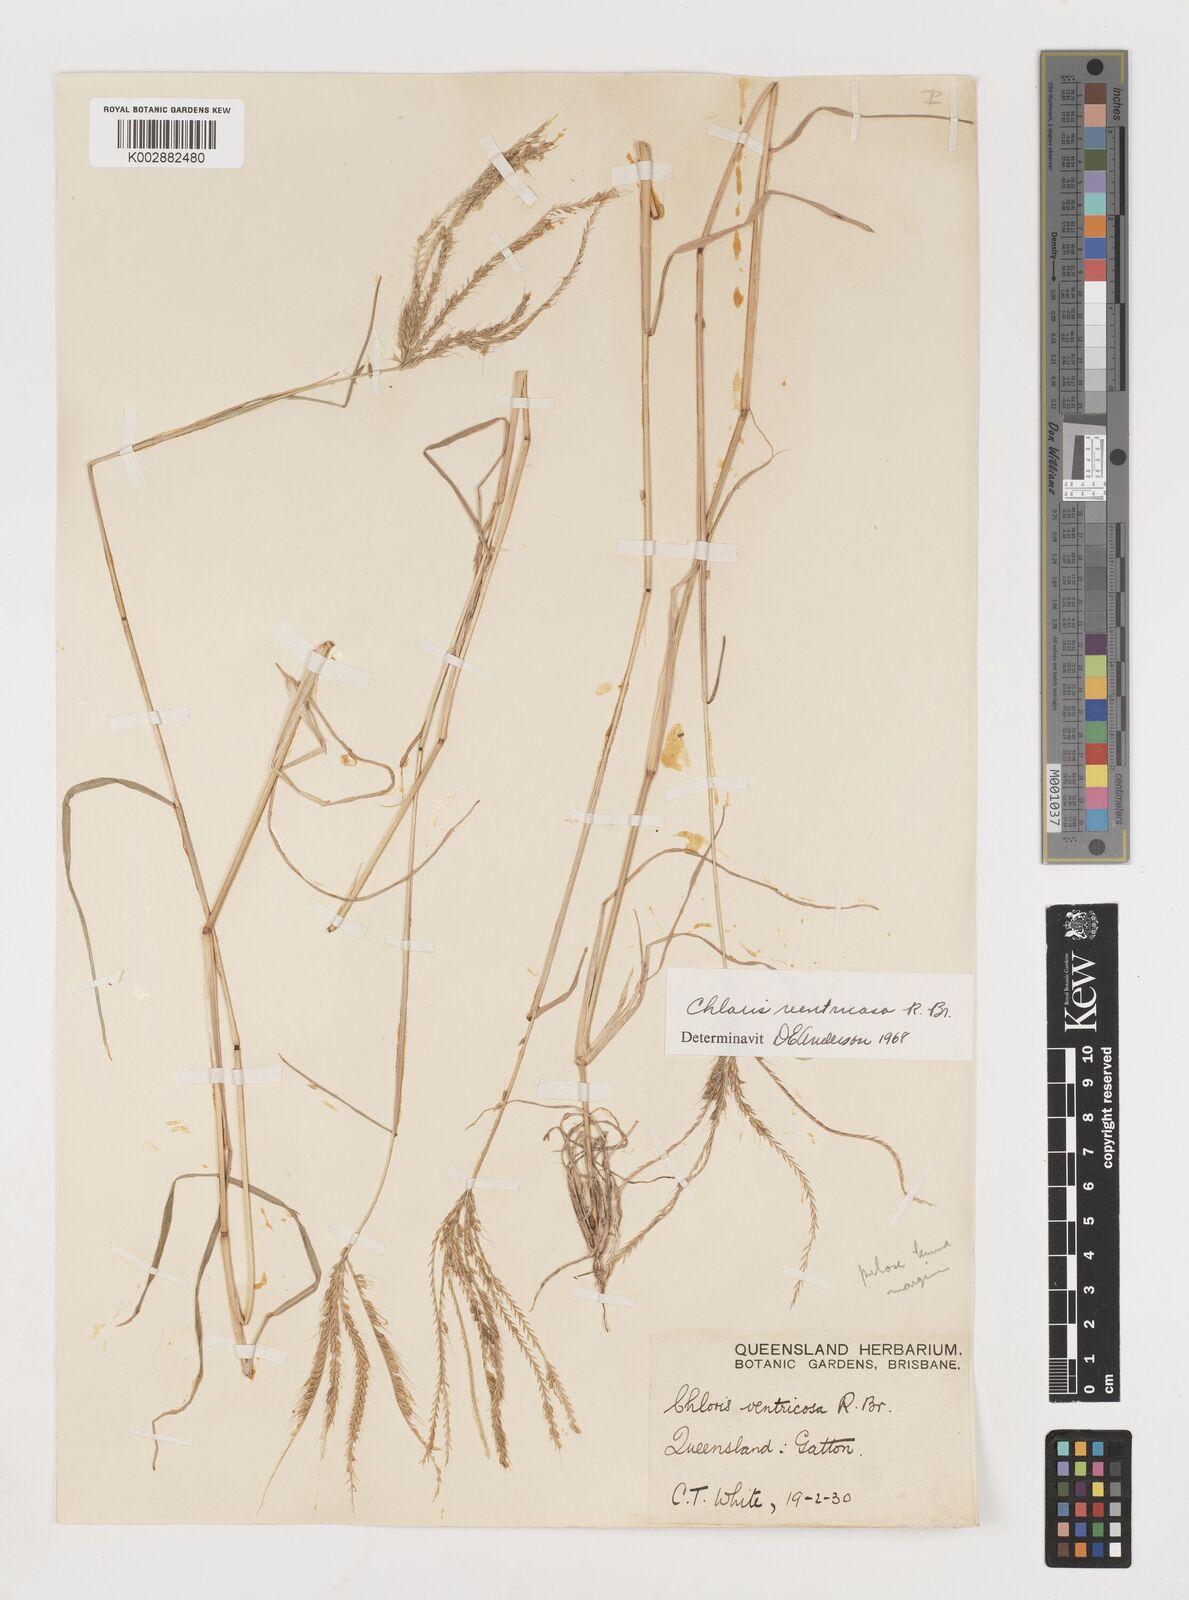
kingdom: Plantae
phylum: Tracheophyta
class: Liliopsida
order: Poales
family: Poaceae
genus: Chloris
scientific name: Chloris ventricosa
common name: Australian windmill grass
